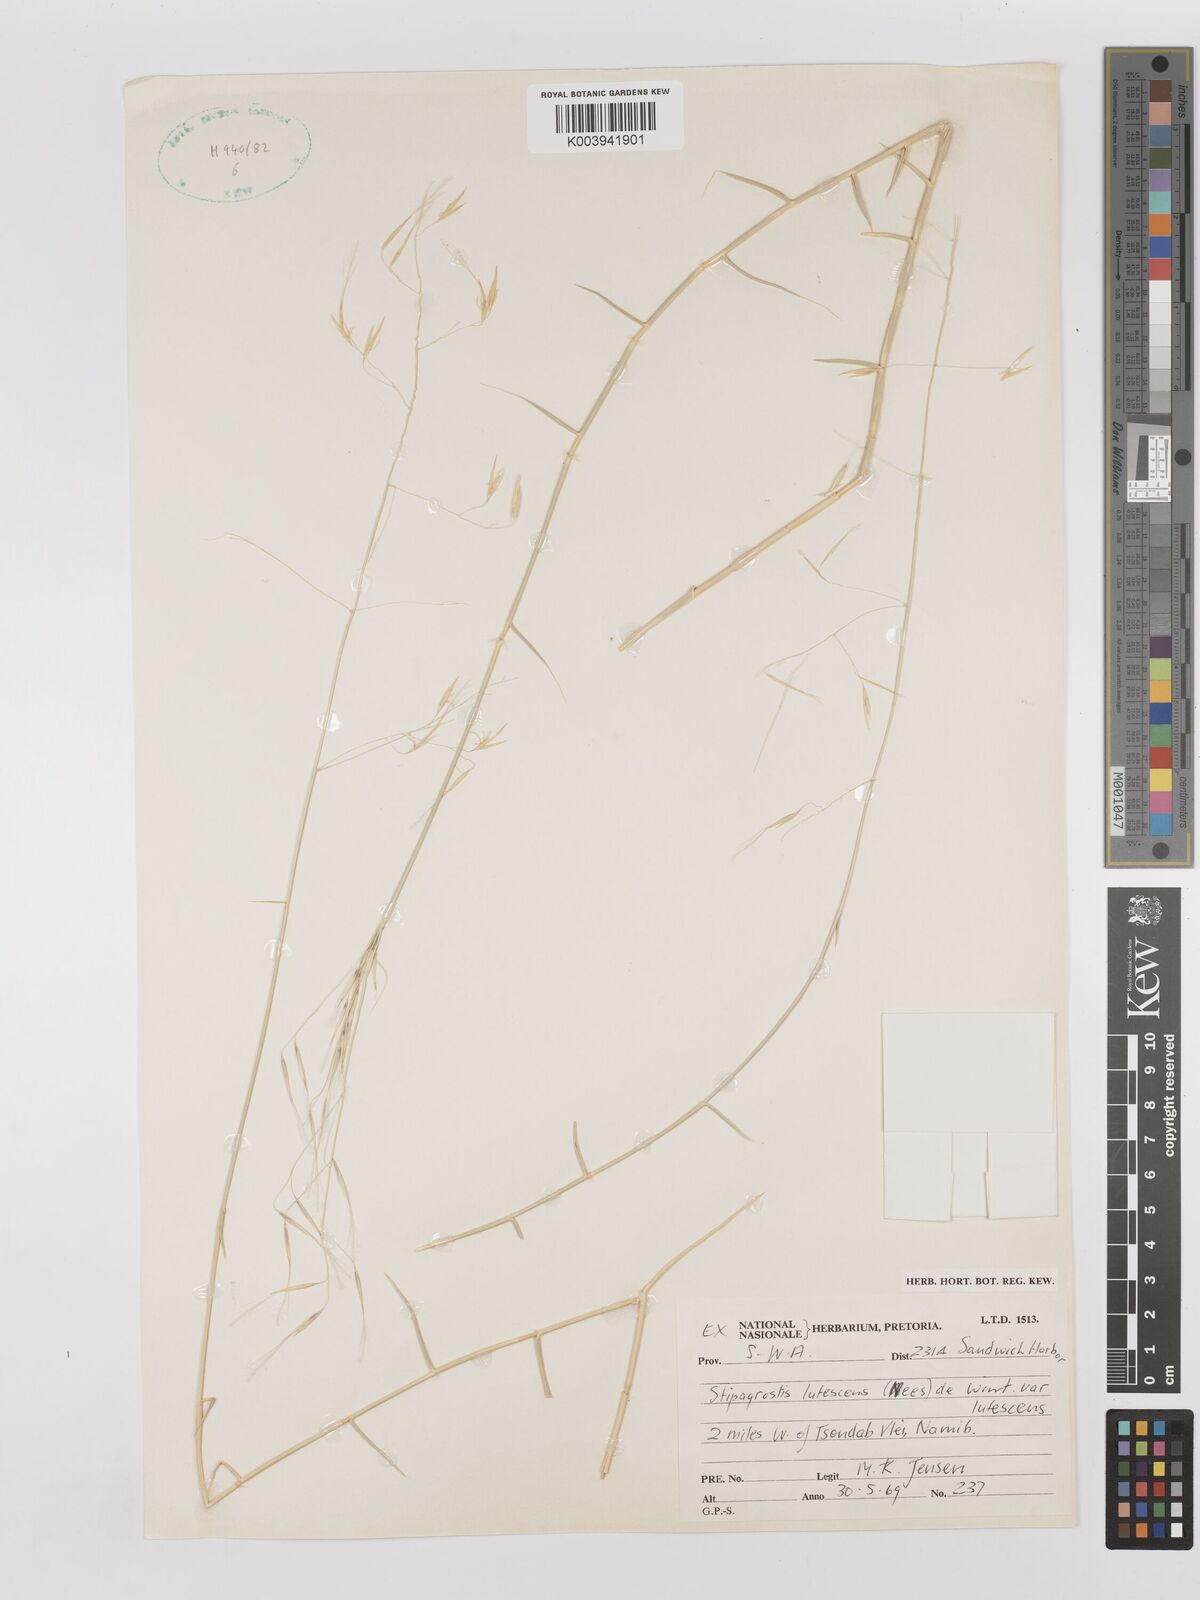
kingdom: Plantae
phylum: Tracheophyta
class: Liliopsida
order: Poales
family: Poaceae
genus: Stipagrostis
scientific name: Stipagrostis lutescens
